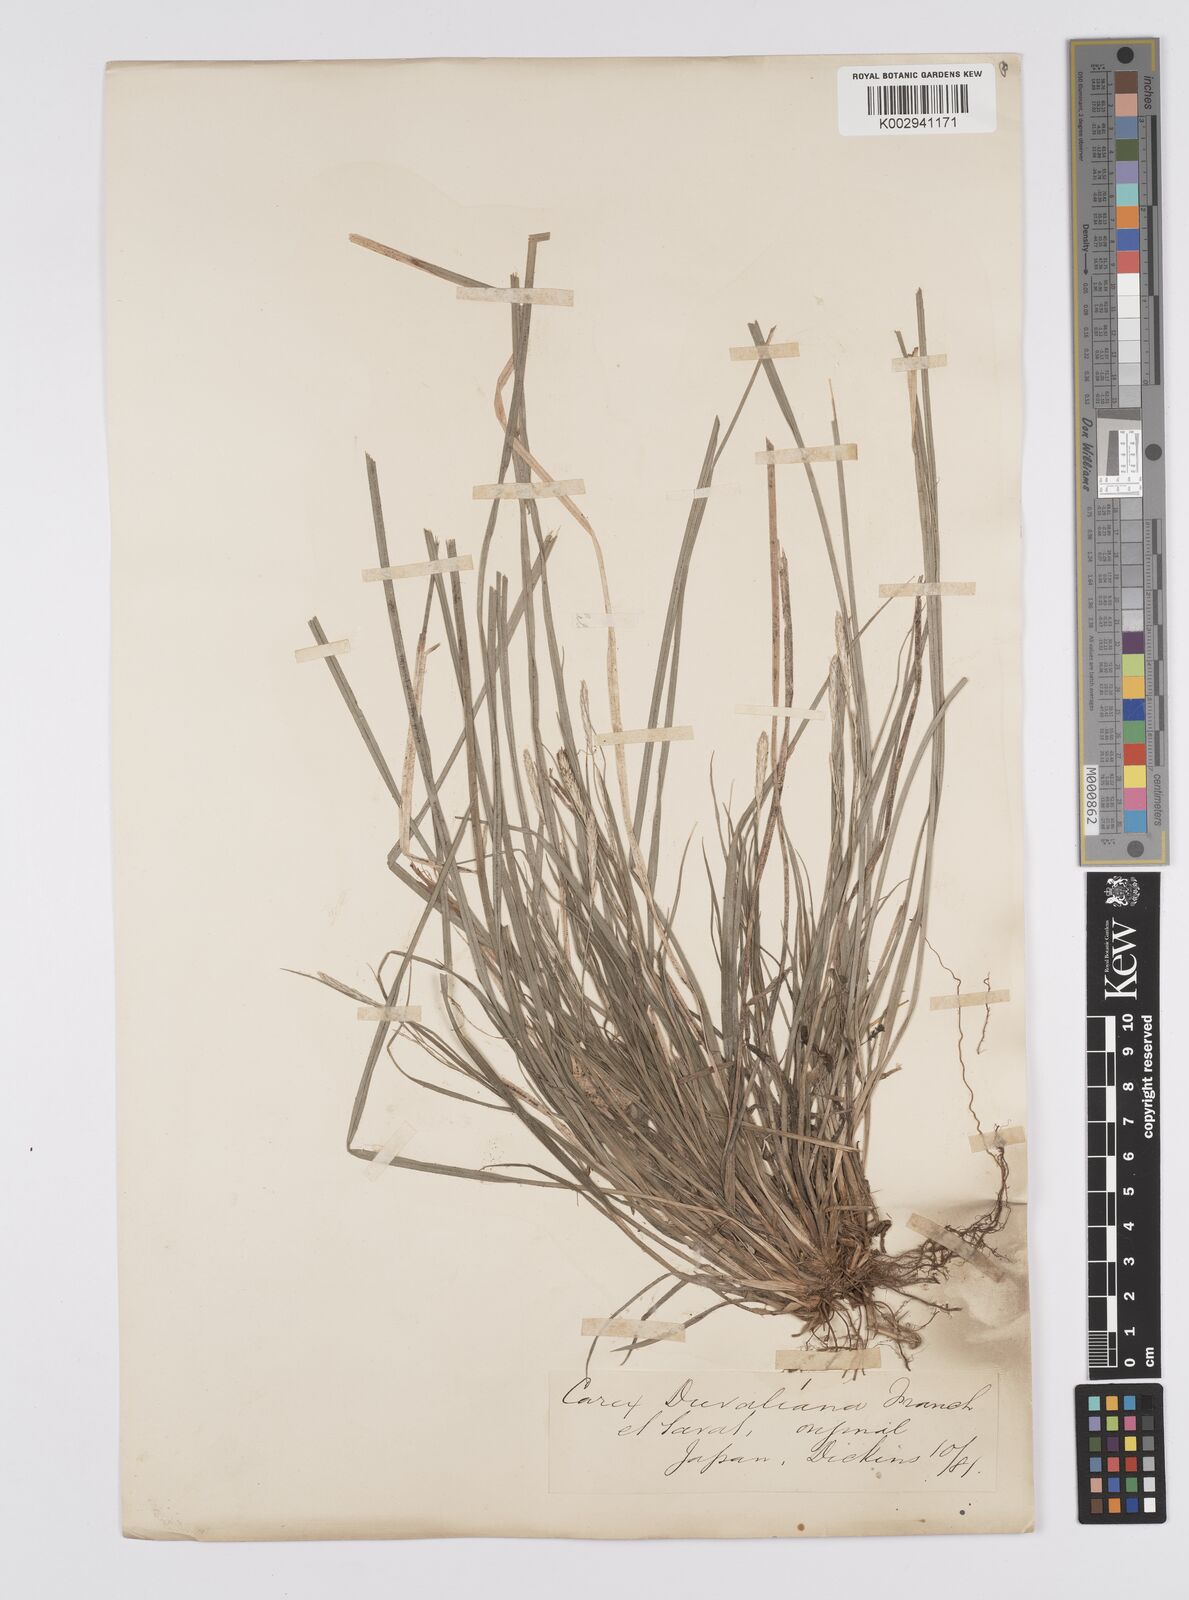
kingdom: Plantae
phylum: Tracheophyta
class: Liliopsida
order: Poales
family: Cyperaceae
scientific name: Cyperaceae
